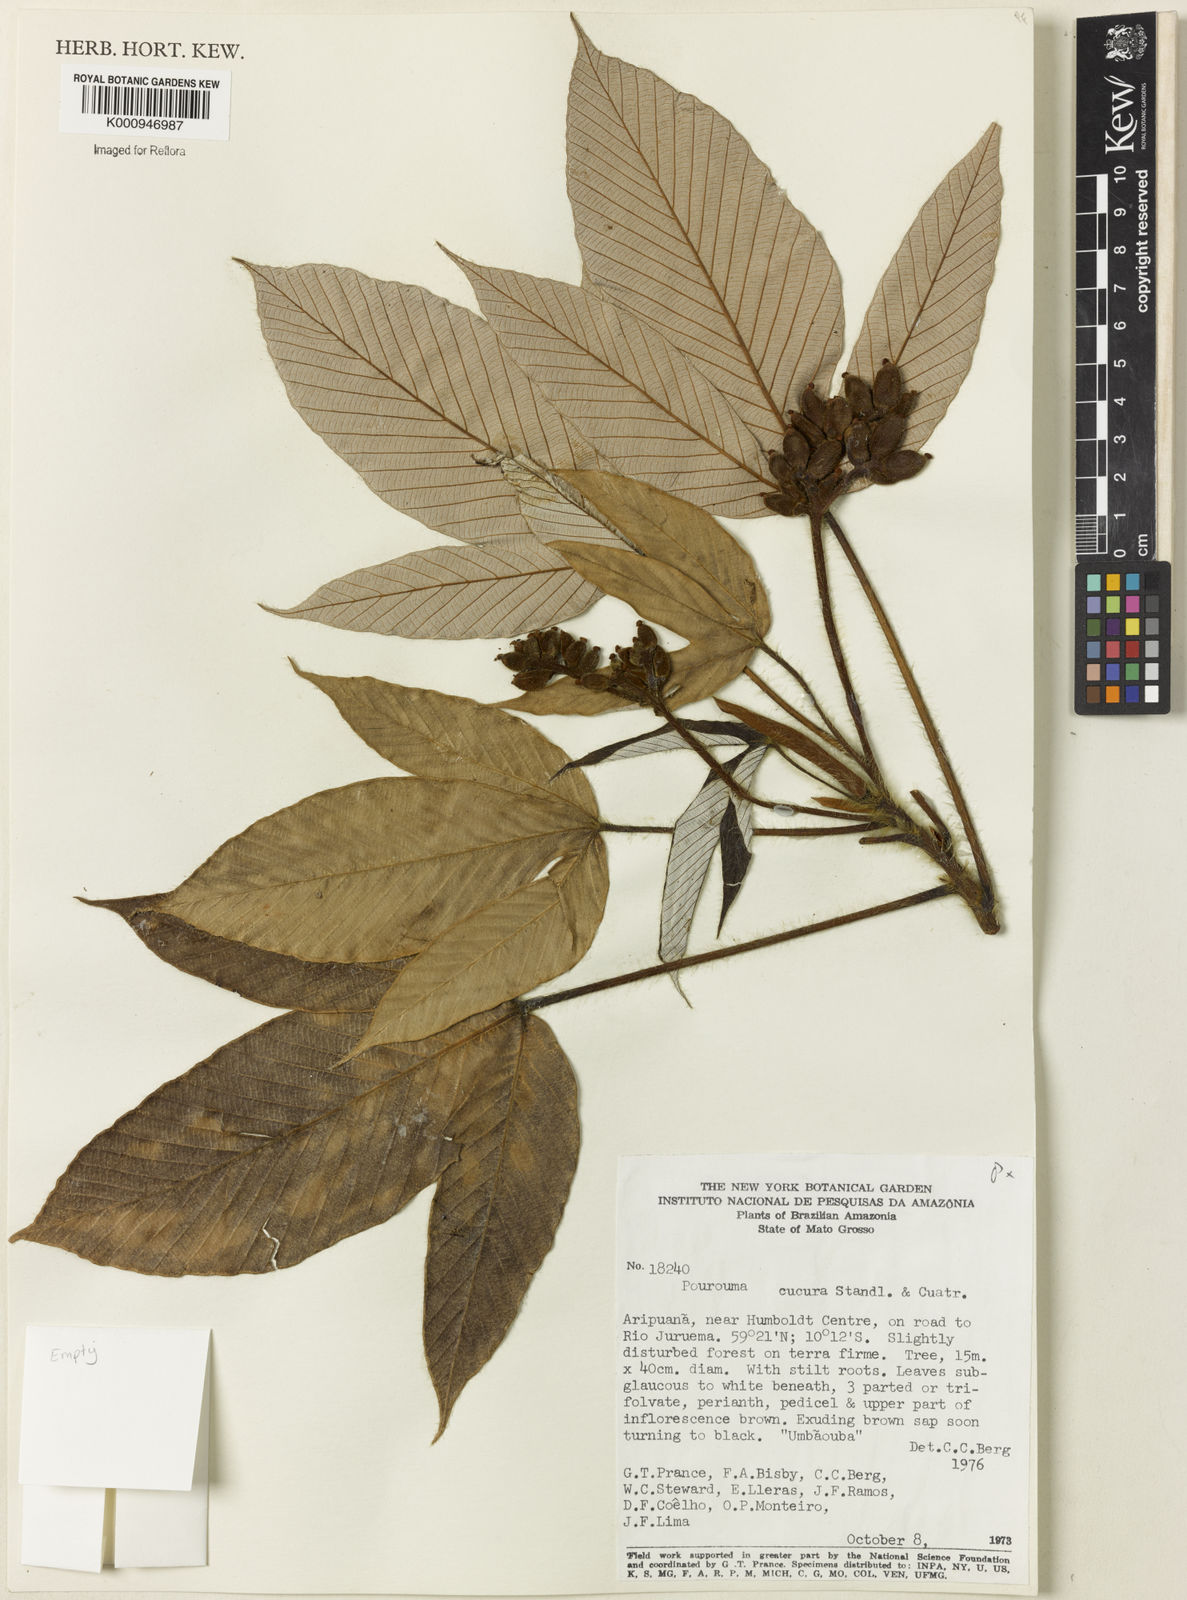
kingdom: Plantae
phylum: Tracheophyta
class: Magnoliopsida
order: Rosales
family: Urticaceae
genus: Pourouma
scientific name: Pourouma cucura
